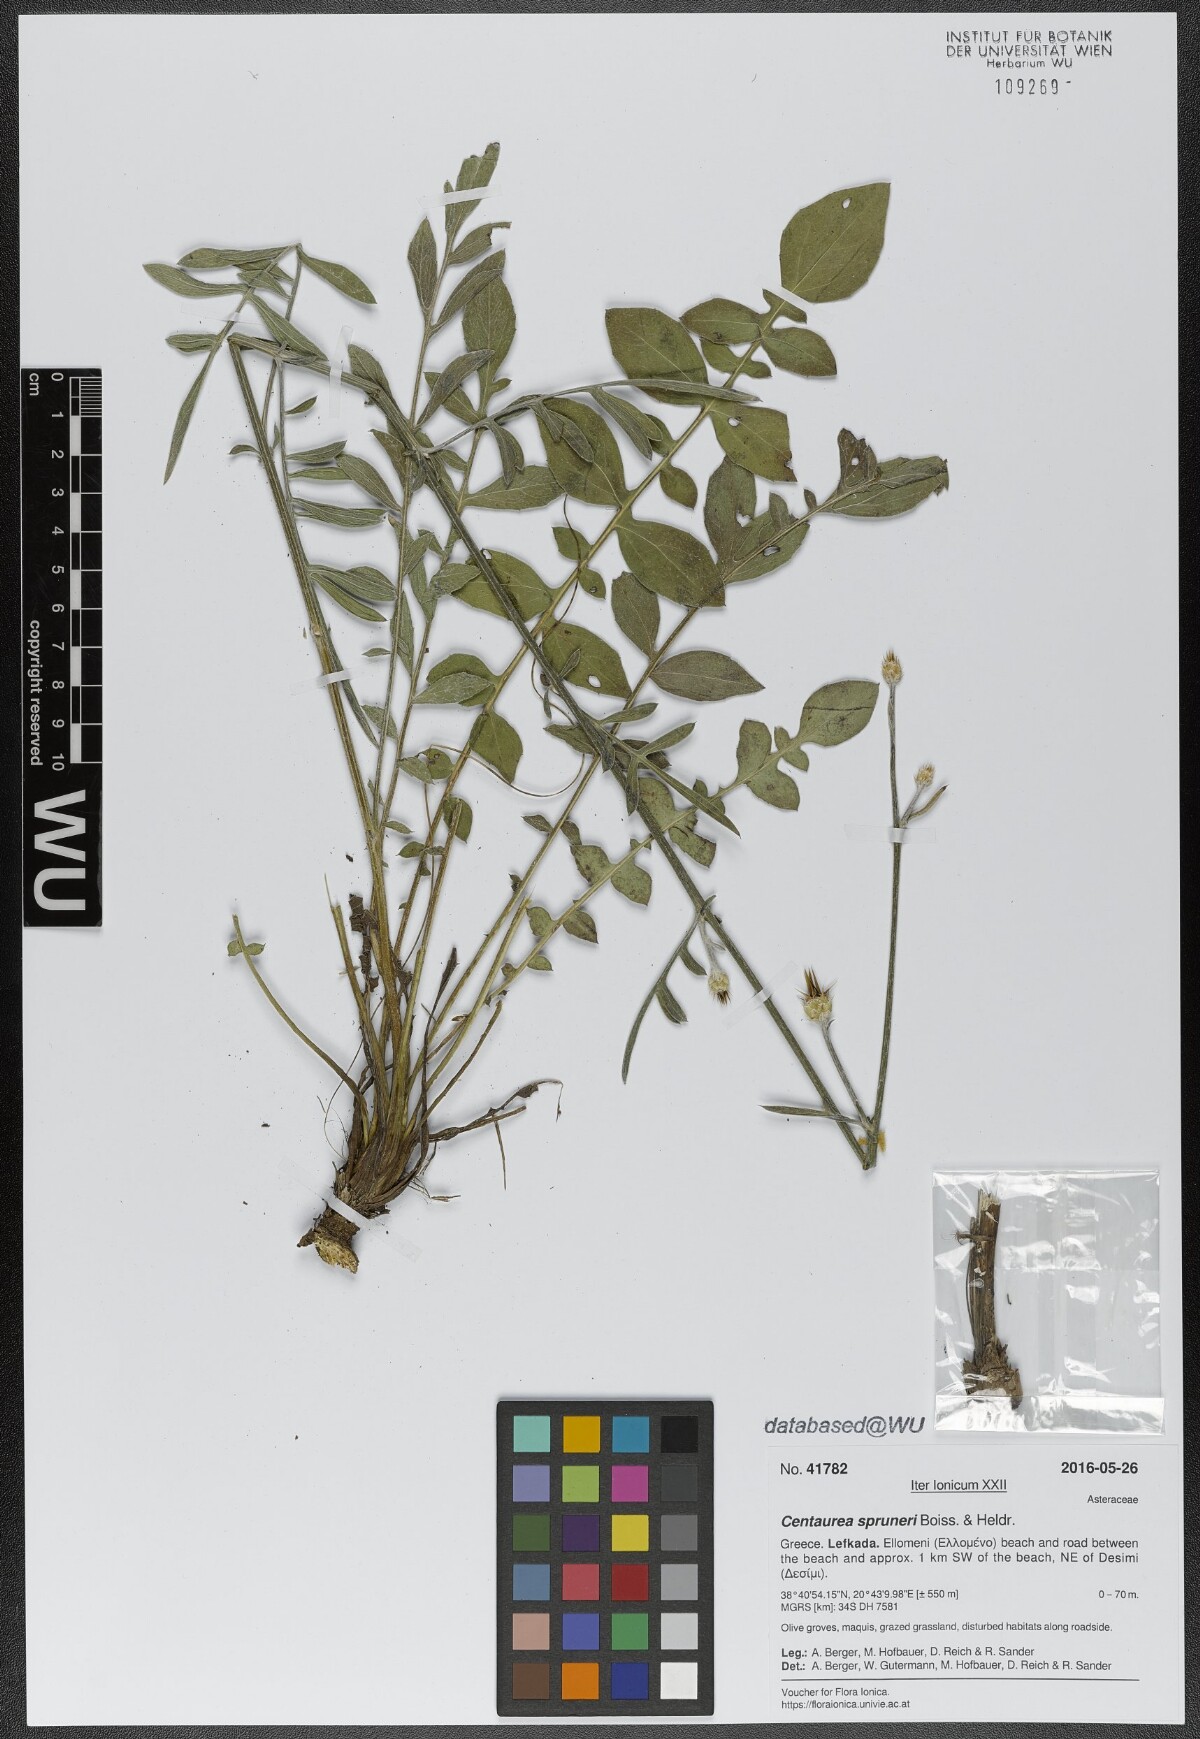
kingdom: Plantae
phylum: Tracheophyta
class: Magnoliopsida
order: Asterales
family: Asteraceae
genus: Centaurea
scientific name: Centaurea spruneri
